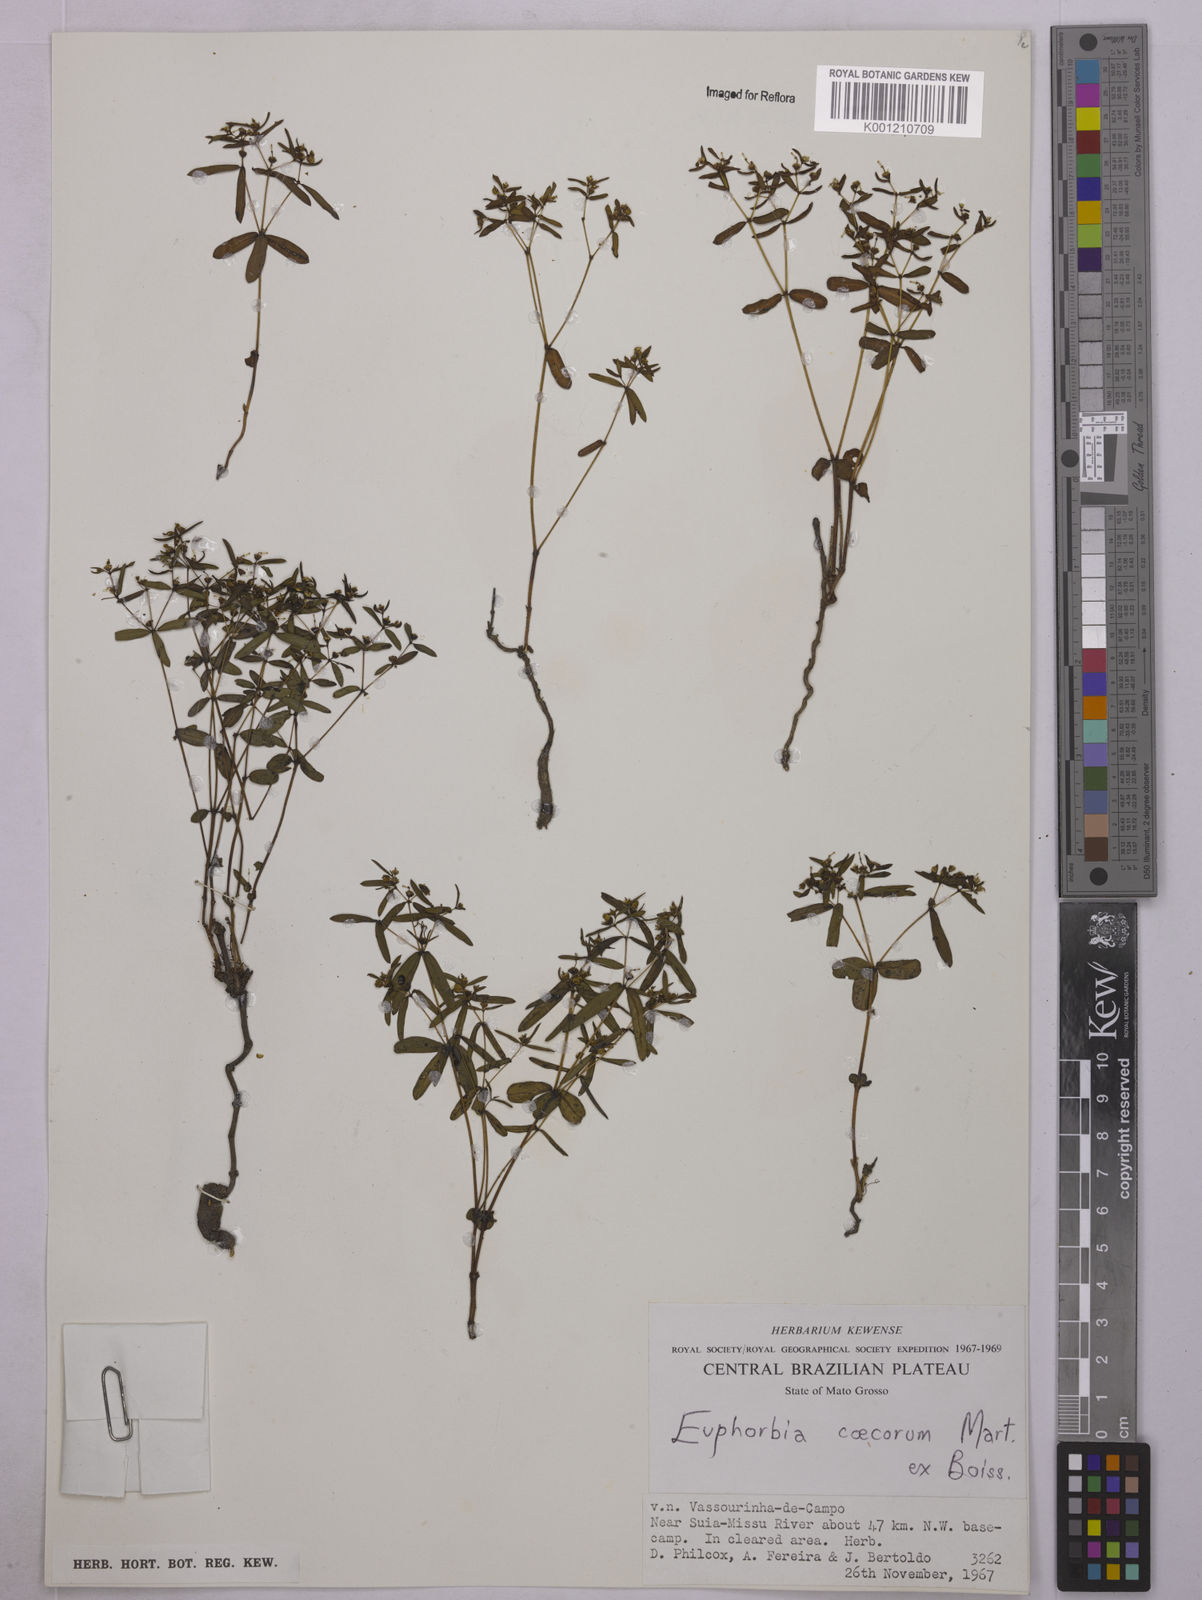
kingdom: Plantae
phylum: Tracheophyta
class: Magnoliopsida
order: Malpighiales
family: Euphorbiaceae
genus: Euphorbia
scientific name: Euphorbia potentilloides
